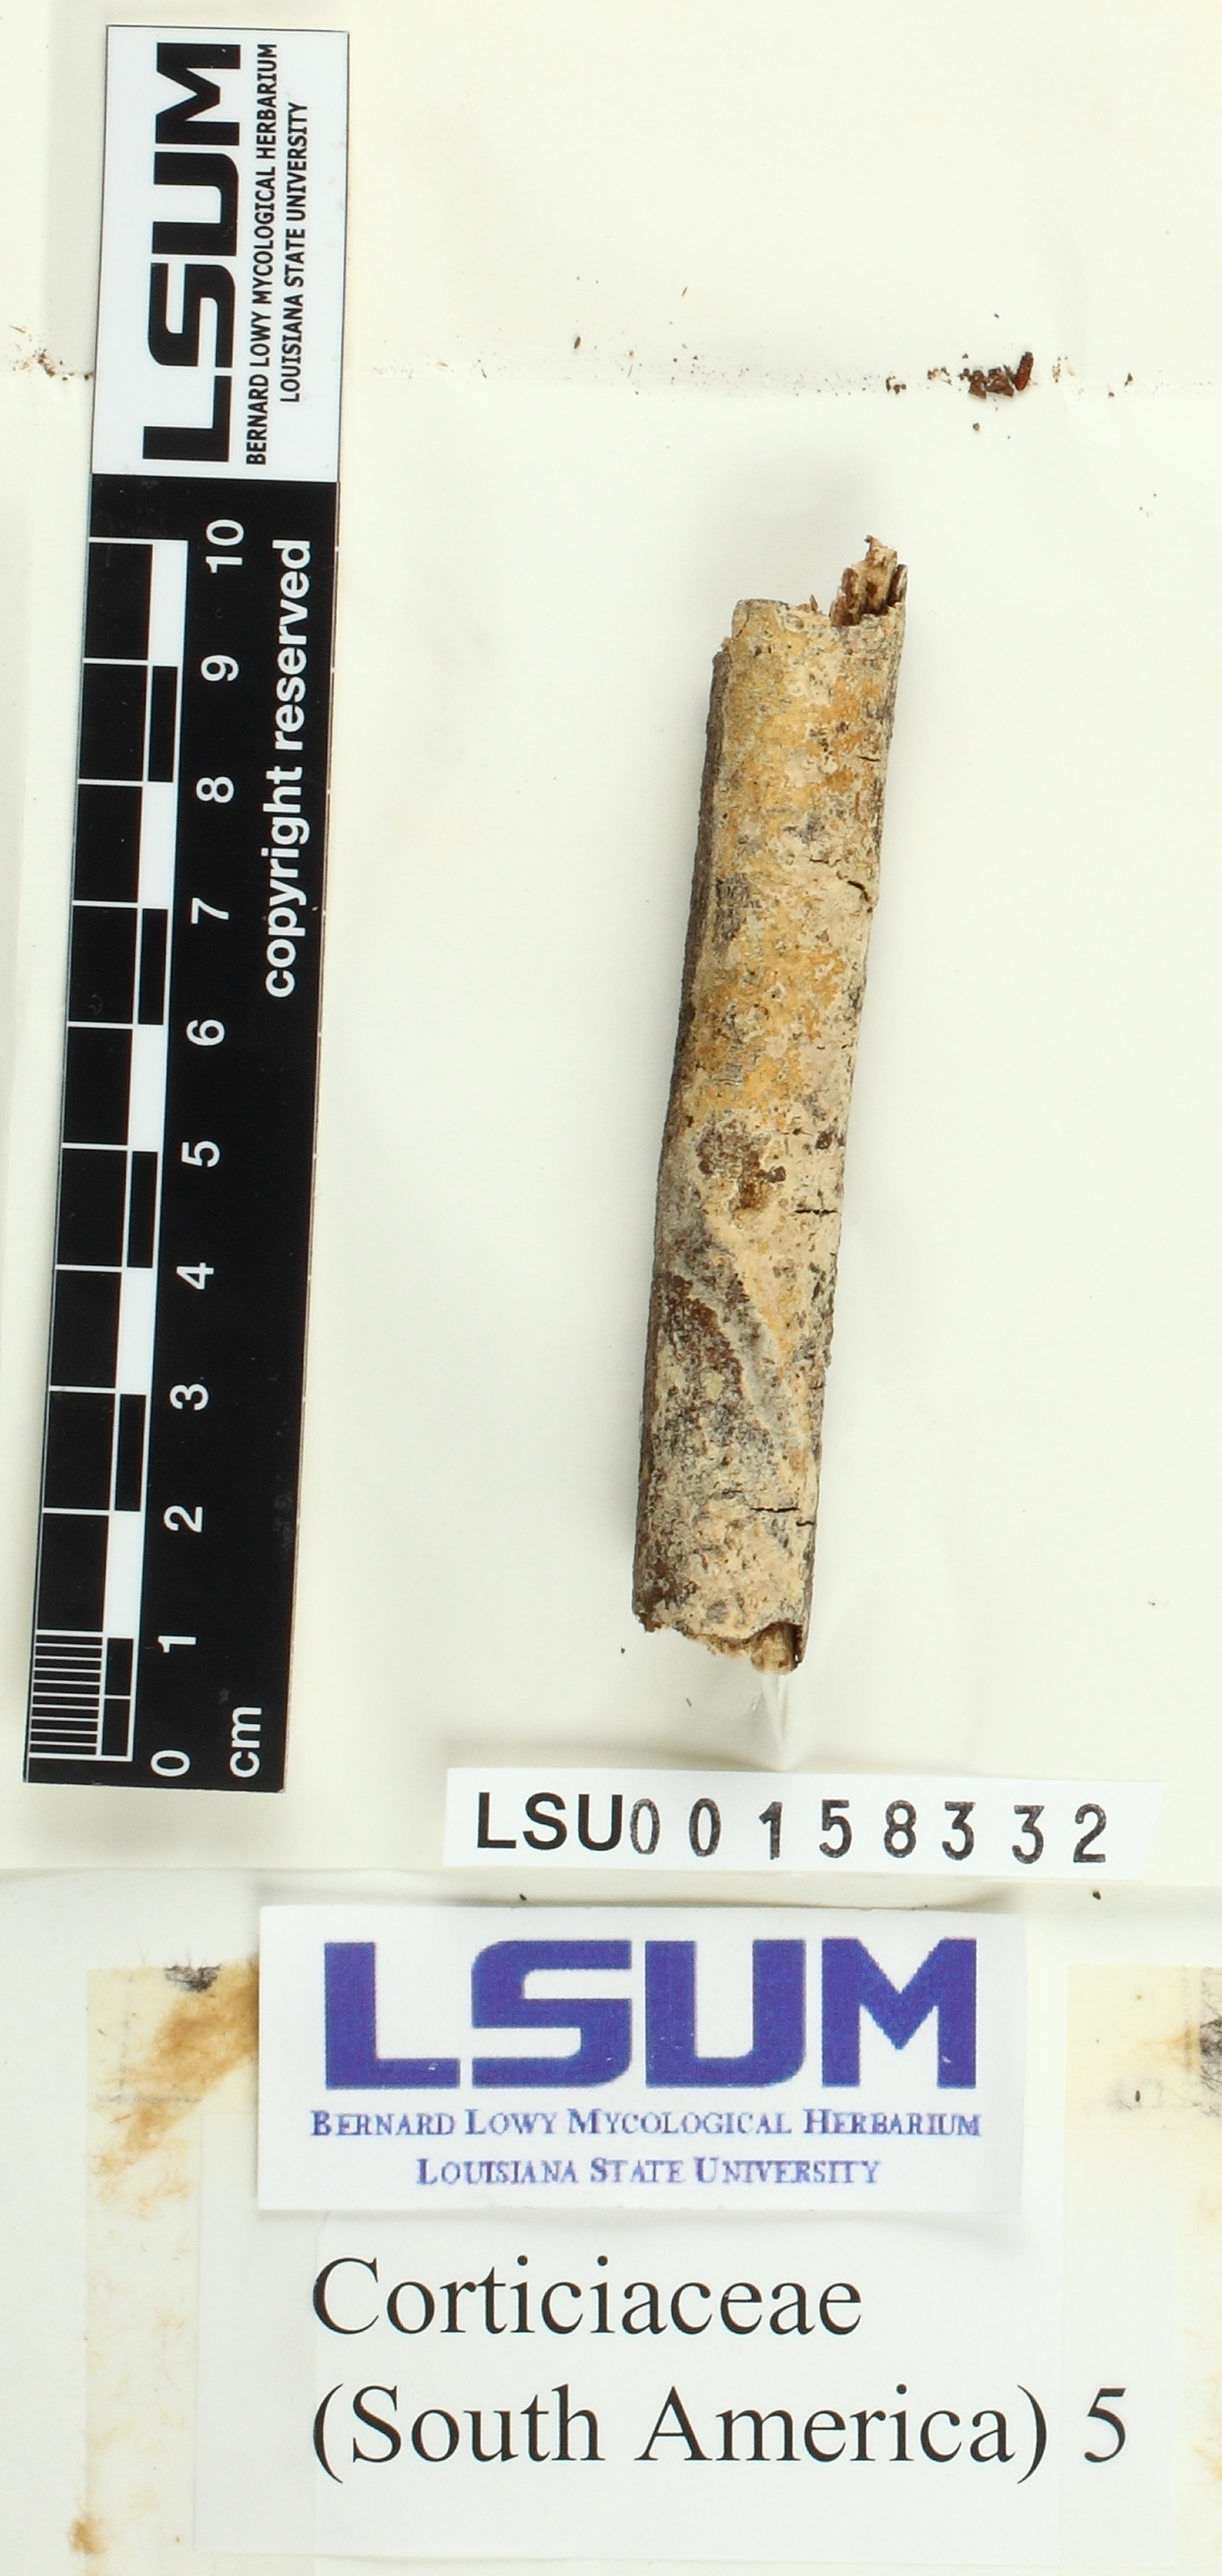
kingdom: Fungi
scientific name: Fungi
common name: Fungi
